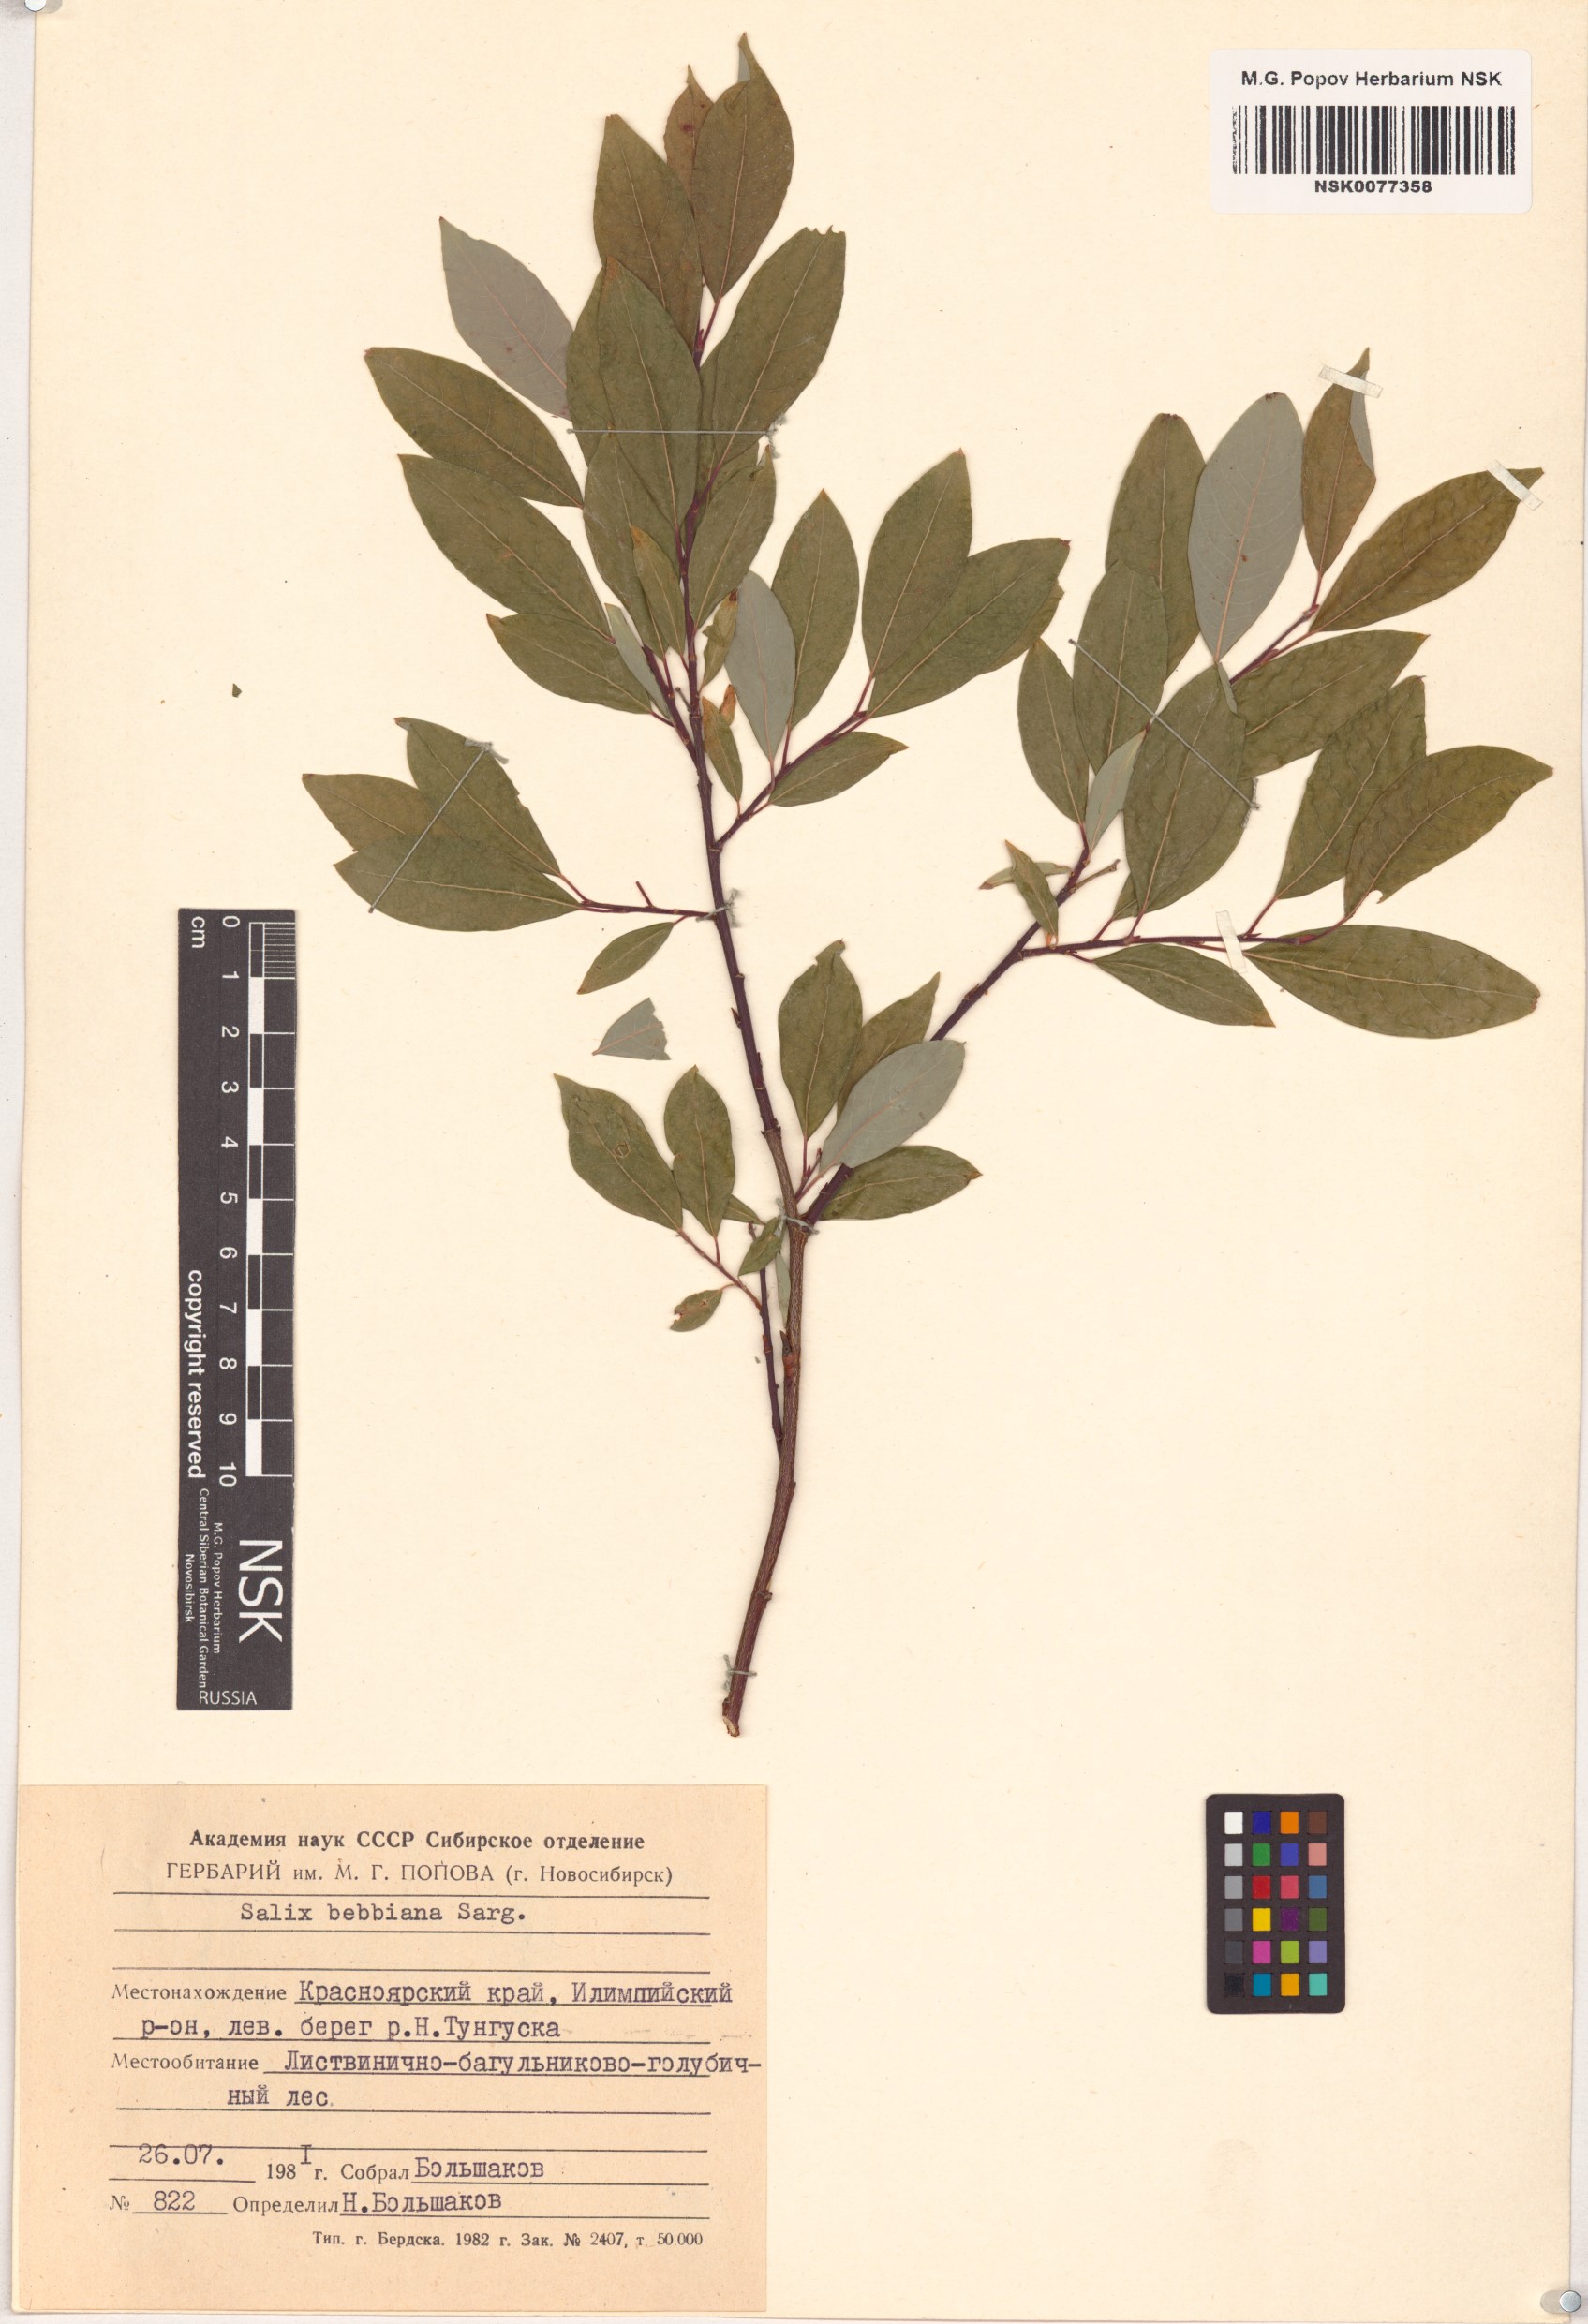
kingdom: Plantae
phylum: Tracheophyta
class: Magnoliopsida
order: Malpighiales
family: Salicaceae
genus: Salix
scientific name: Salix bebbiana
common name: Bebb's willow
